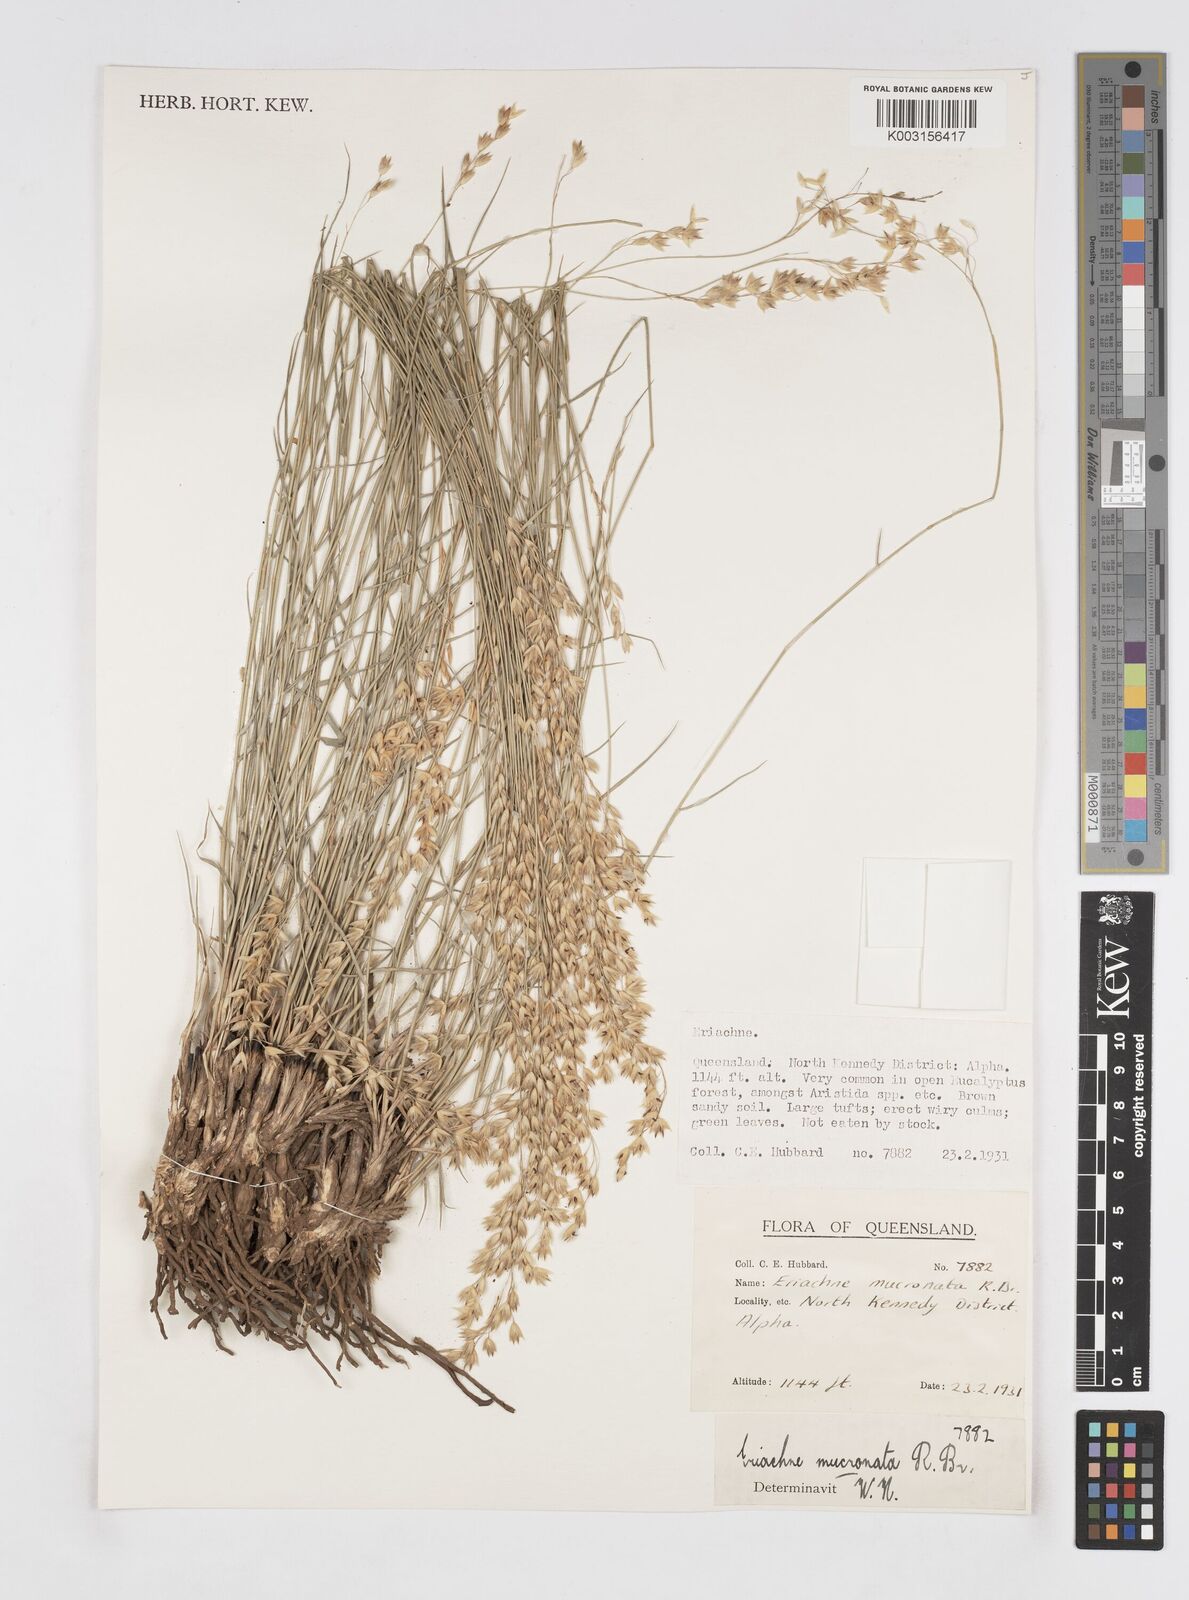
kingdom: Plantae
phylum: Tracheophyta
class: Liliopsida
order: Poales
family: Poaceae
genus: Eriachne
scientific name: Eriachne mucronata
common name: Mountain wanderrie grass
